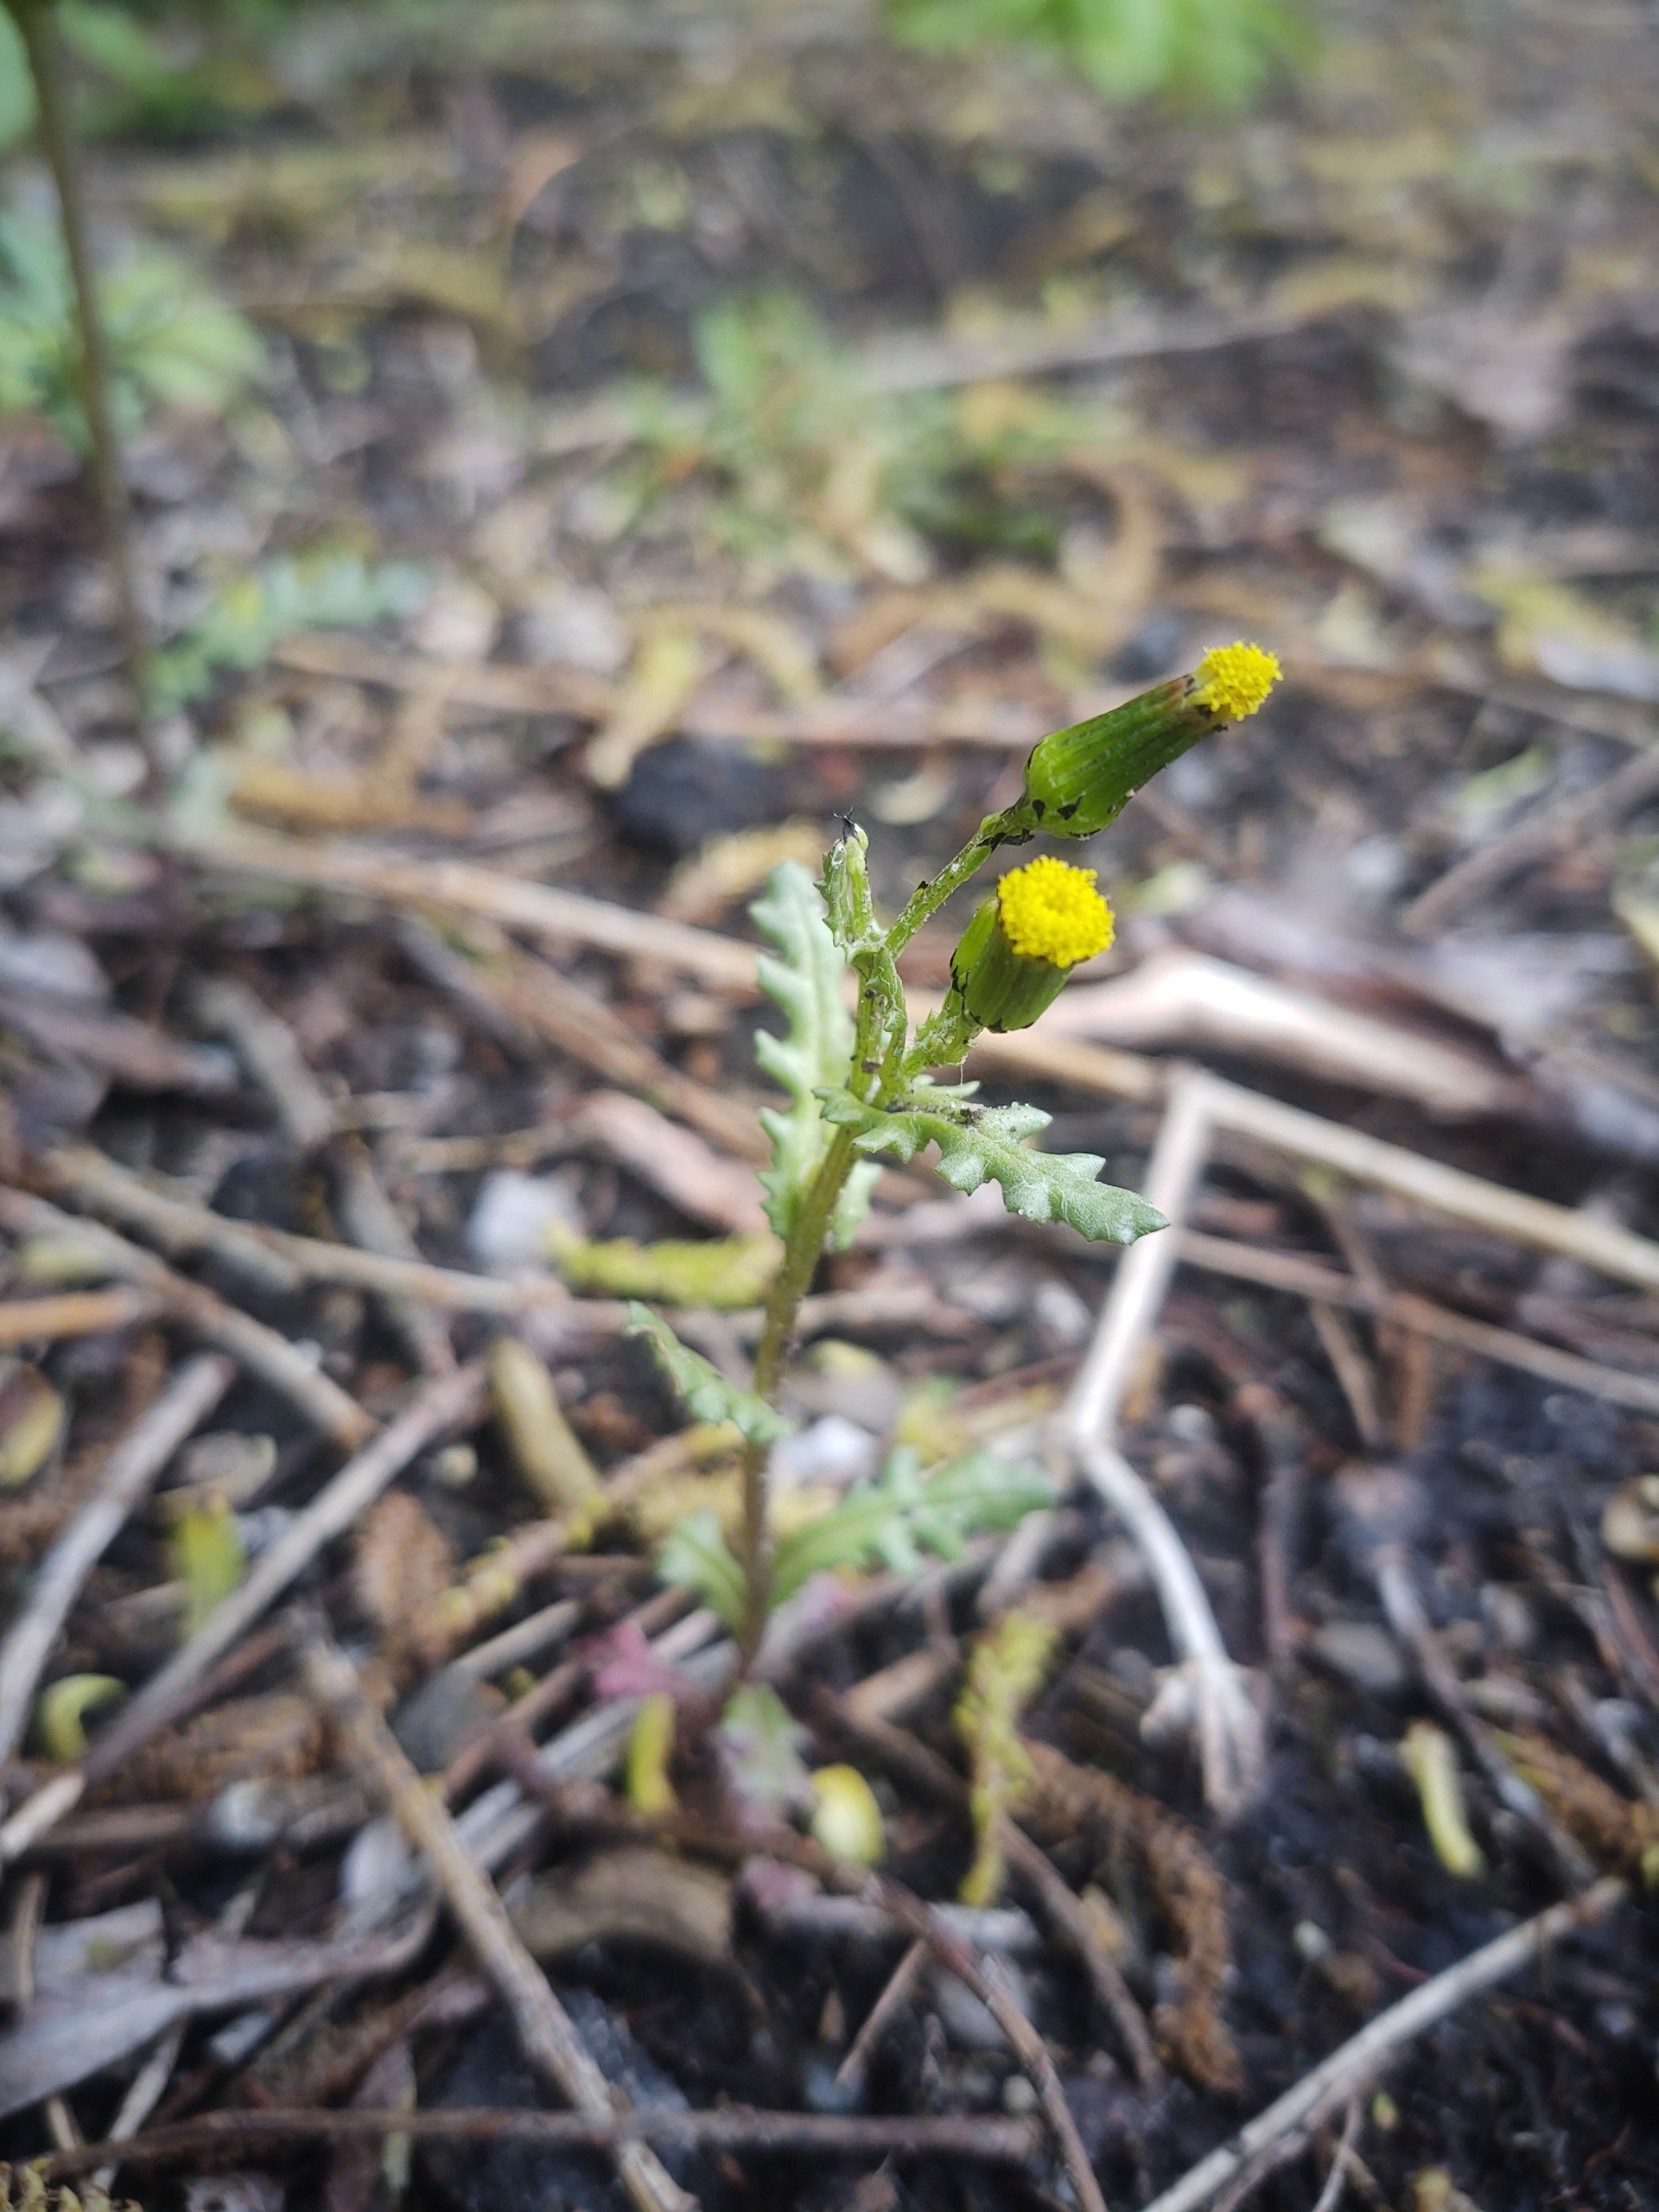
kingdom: Plantae
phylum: Tracheophyta
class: Magnoliopsida
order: Asterales
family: Asteraceae
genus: Senecio
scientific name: Senecio vulgaris
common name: Almindelig brandbæger
